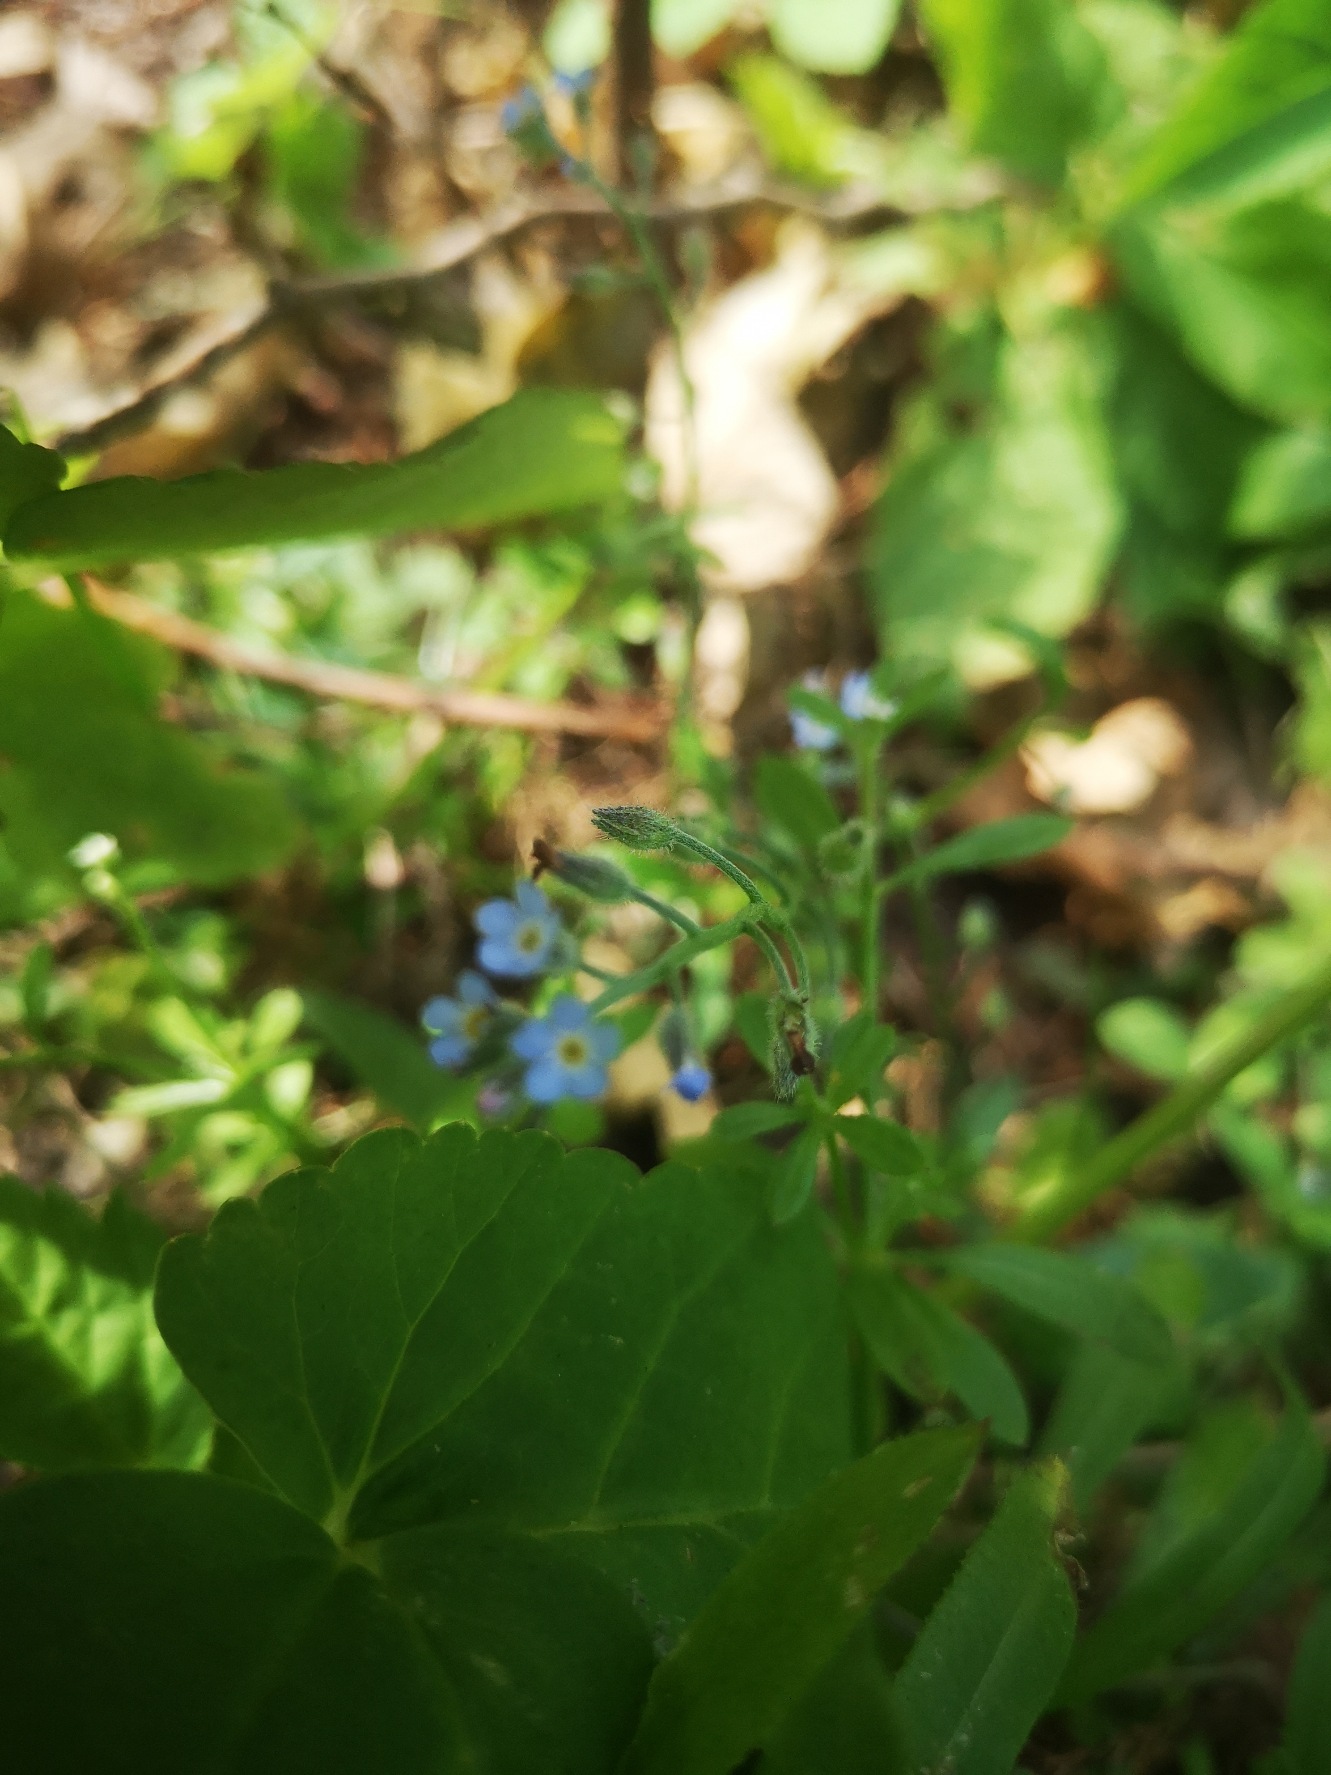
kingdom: Plantae
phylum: Tracheophyta
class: Magnoliopsida
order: Boraginales
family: Boraginaceae
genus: Myosotis
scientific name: Myosotis arvensis
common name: Mark-forglemmigej
